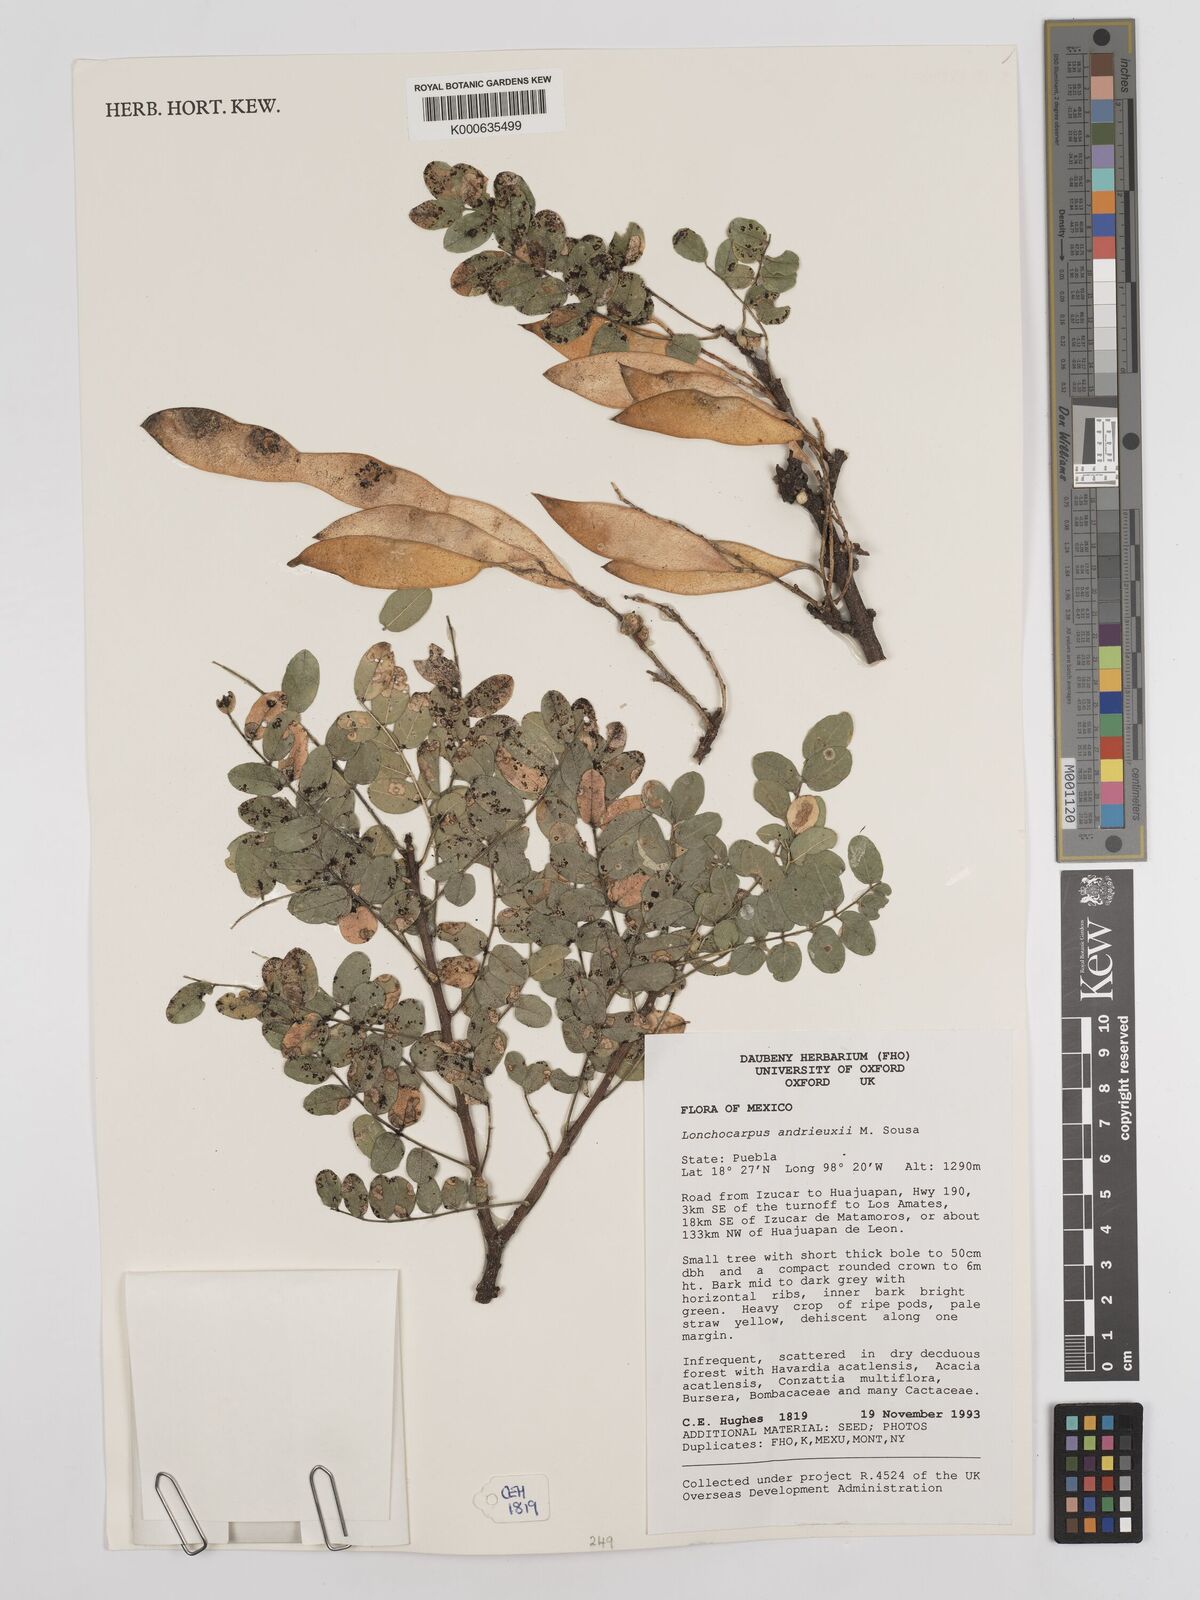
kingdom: Plantae
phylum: Tracheophyta
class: Magnoliopsida
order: Fabales
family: Fabaceae
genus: Lonchocarpus
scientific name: Lonchocarpus andrieuxii
